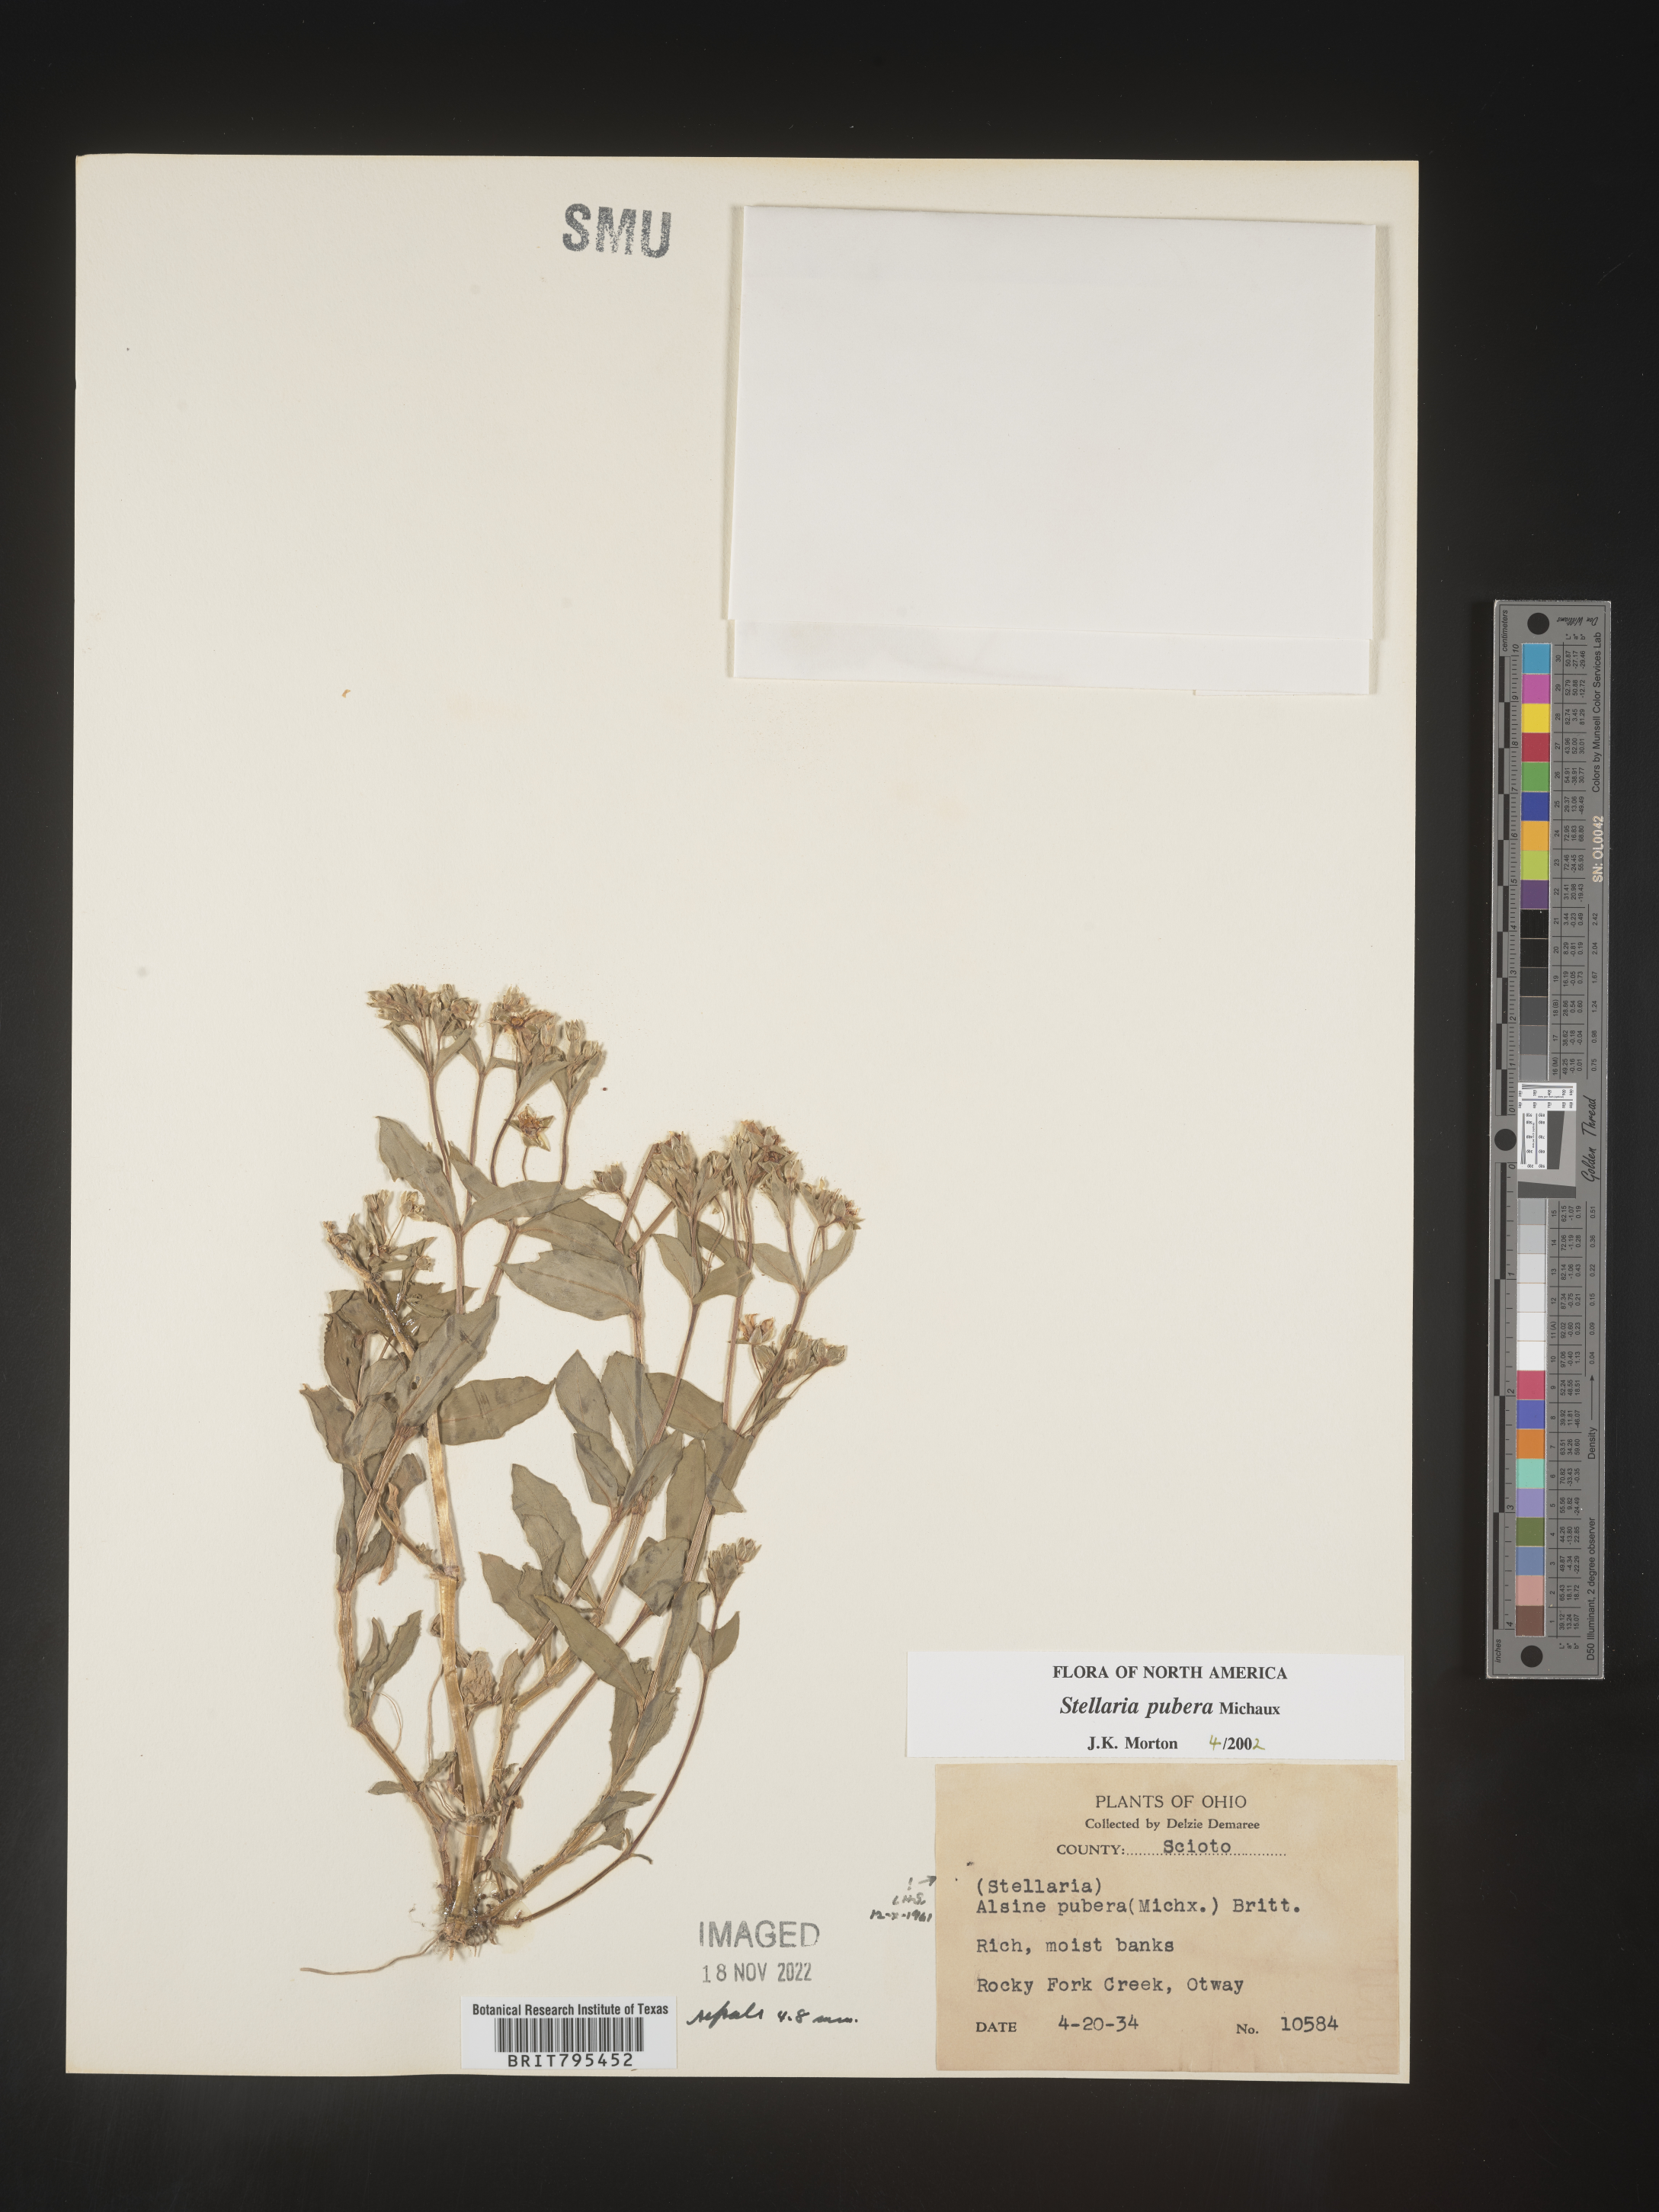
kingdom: Plantae
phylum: Tracheophyta
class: Magnoliopsida
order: Caryophyllales
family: Caryophyllaceae
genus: Stellaria
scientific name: Stellaria pubera
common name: Star chickweed
